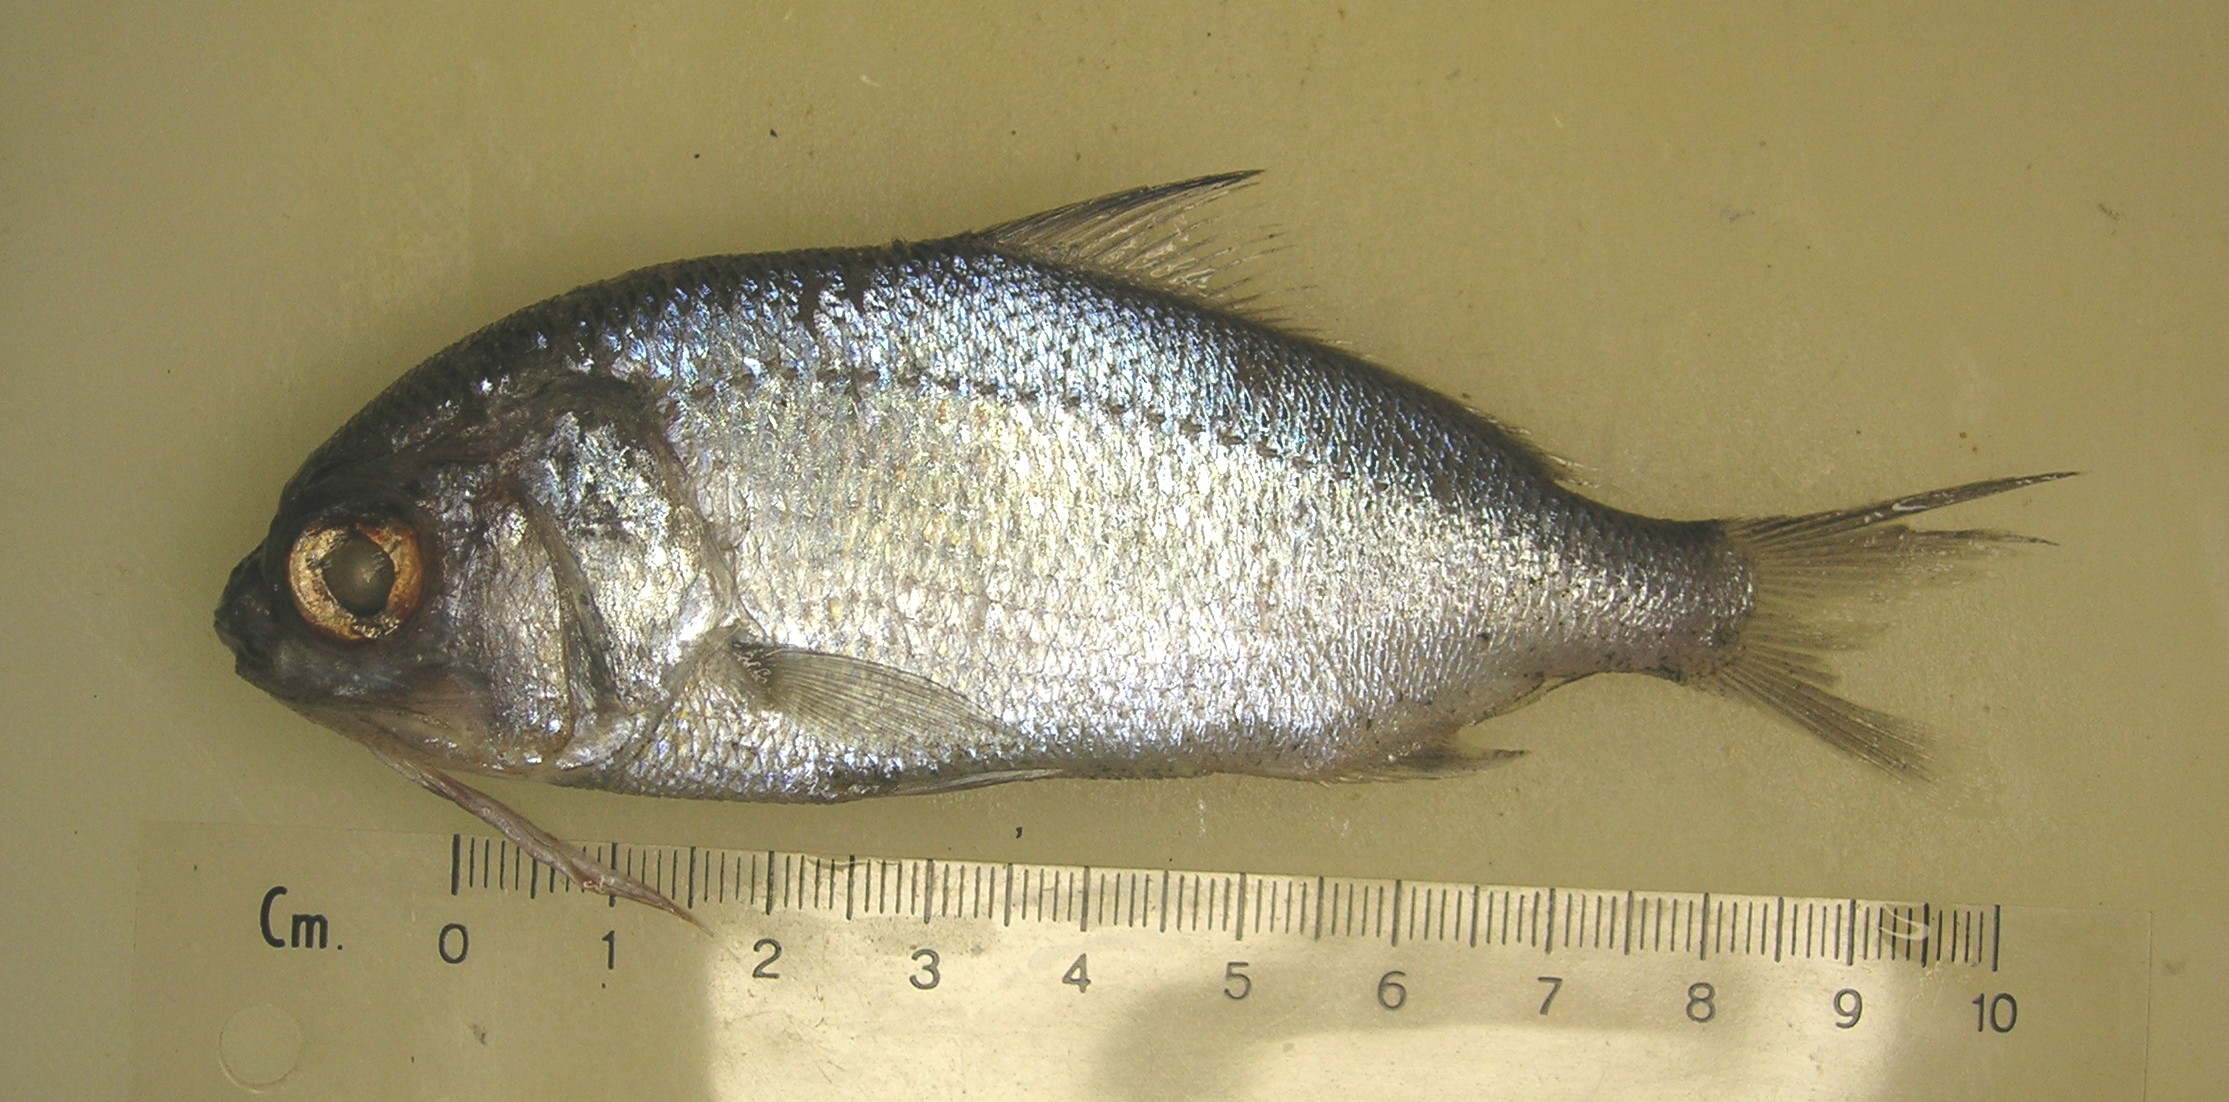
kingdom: Animalia
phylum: Chordata
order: Polymixiiformes
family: Polymixiidae
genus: Polymixia
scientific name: Polymixia berndti
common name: Berndt’s beardfish
